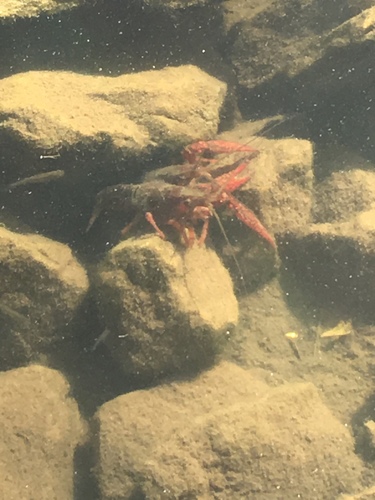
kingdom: Animalia
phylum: Arthropoda
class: Malacostraca
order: Decapoda
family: Cambaridae
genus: Procambarus
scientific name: Procambarus clarkii
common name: Red swamp crayfish
